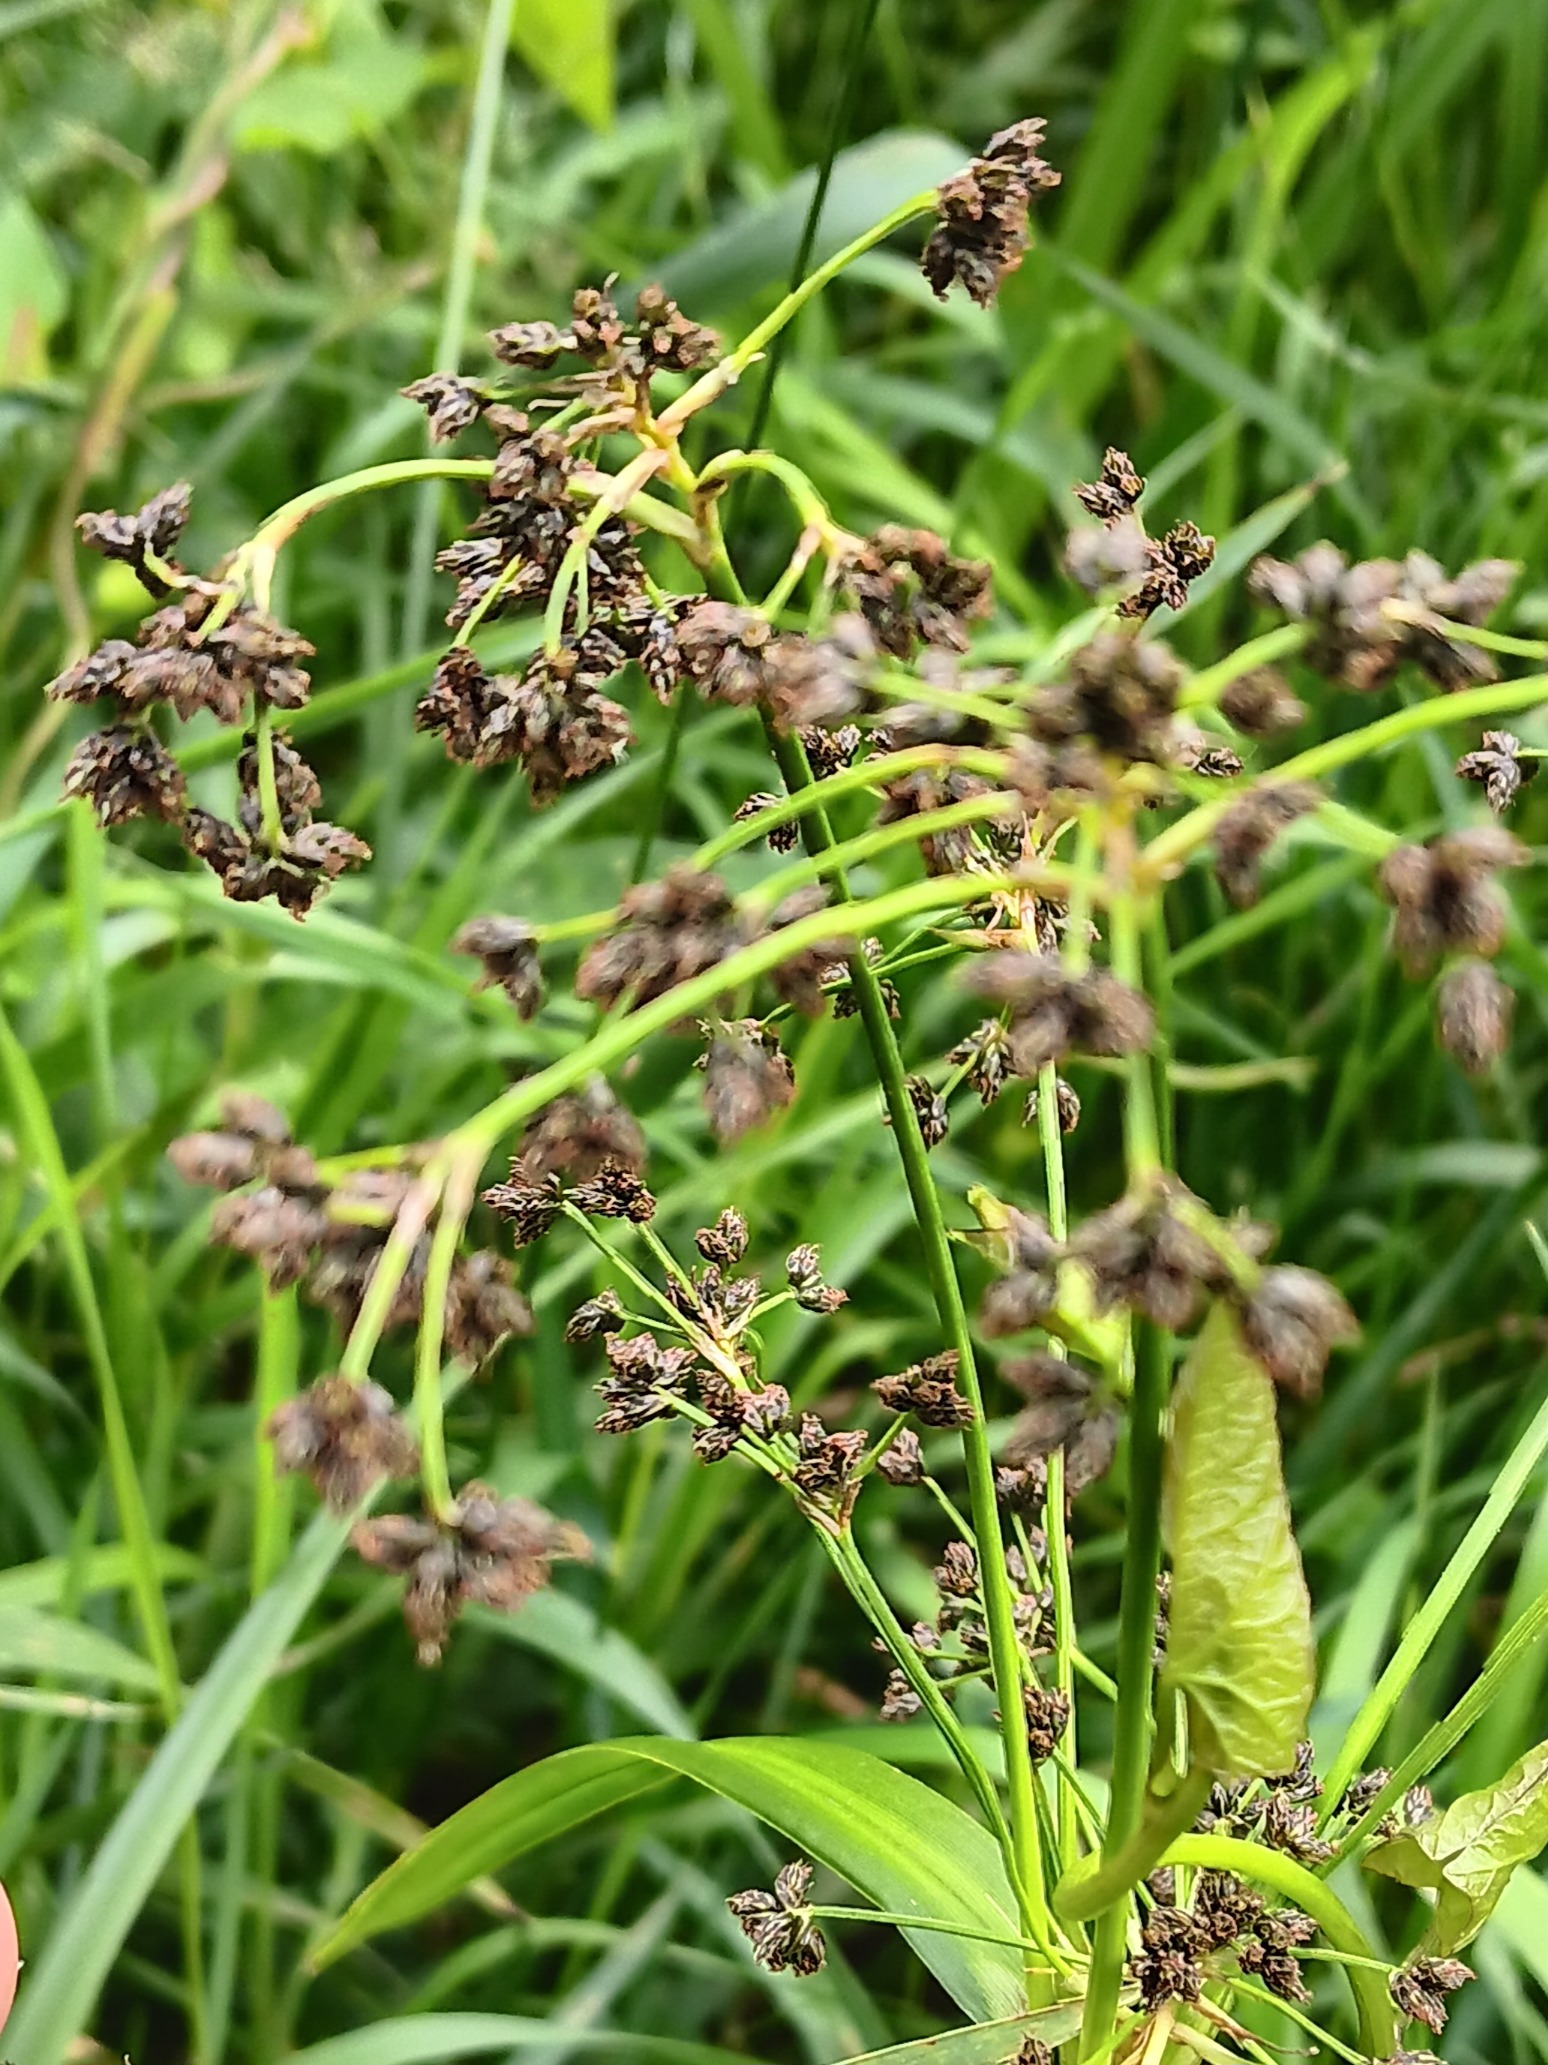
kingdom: Plantae
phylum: Tracheophyta
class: Liliopsida
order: Poales
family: Cyperaceae
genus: Scirpus
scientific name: Scirpus sylvaticus
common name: Skov-kogleaks
